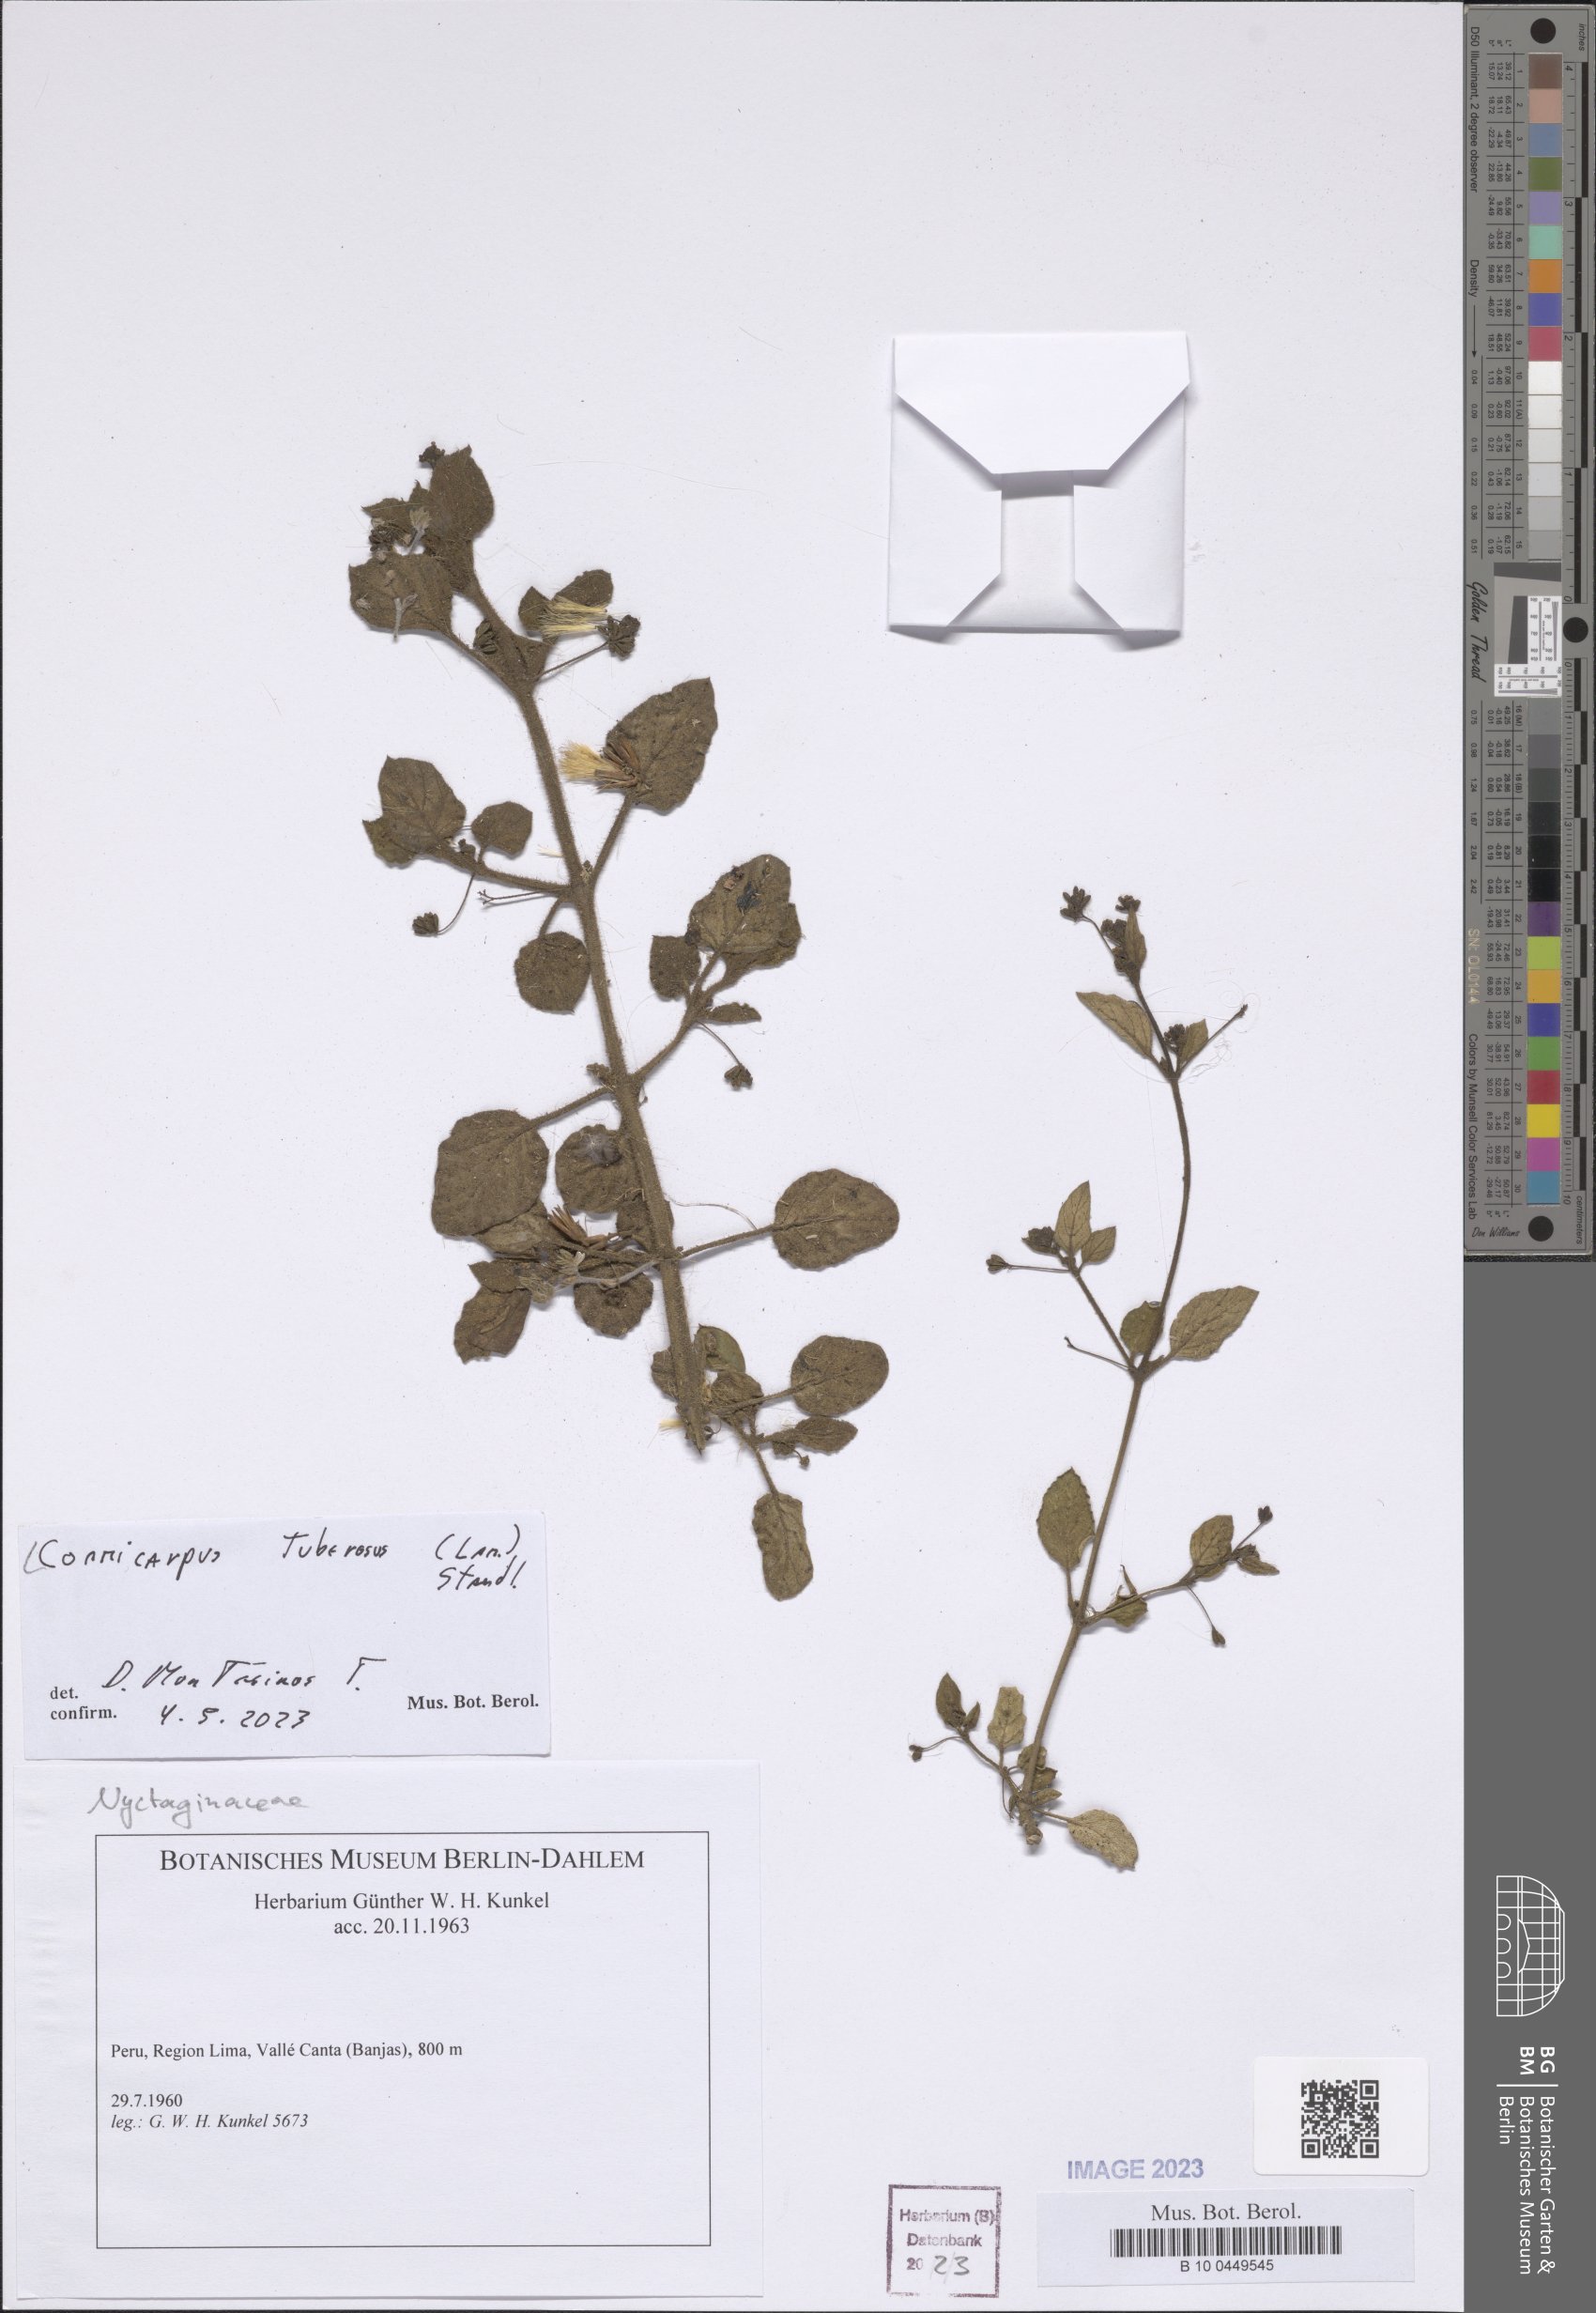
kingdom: Plantae
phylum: Tracheophyta
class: Magnoliopsida
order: Caryophyllales
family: Nyctaginaceae
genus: Commicarpus
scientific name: Commicarpus tuberosus
